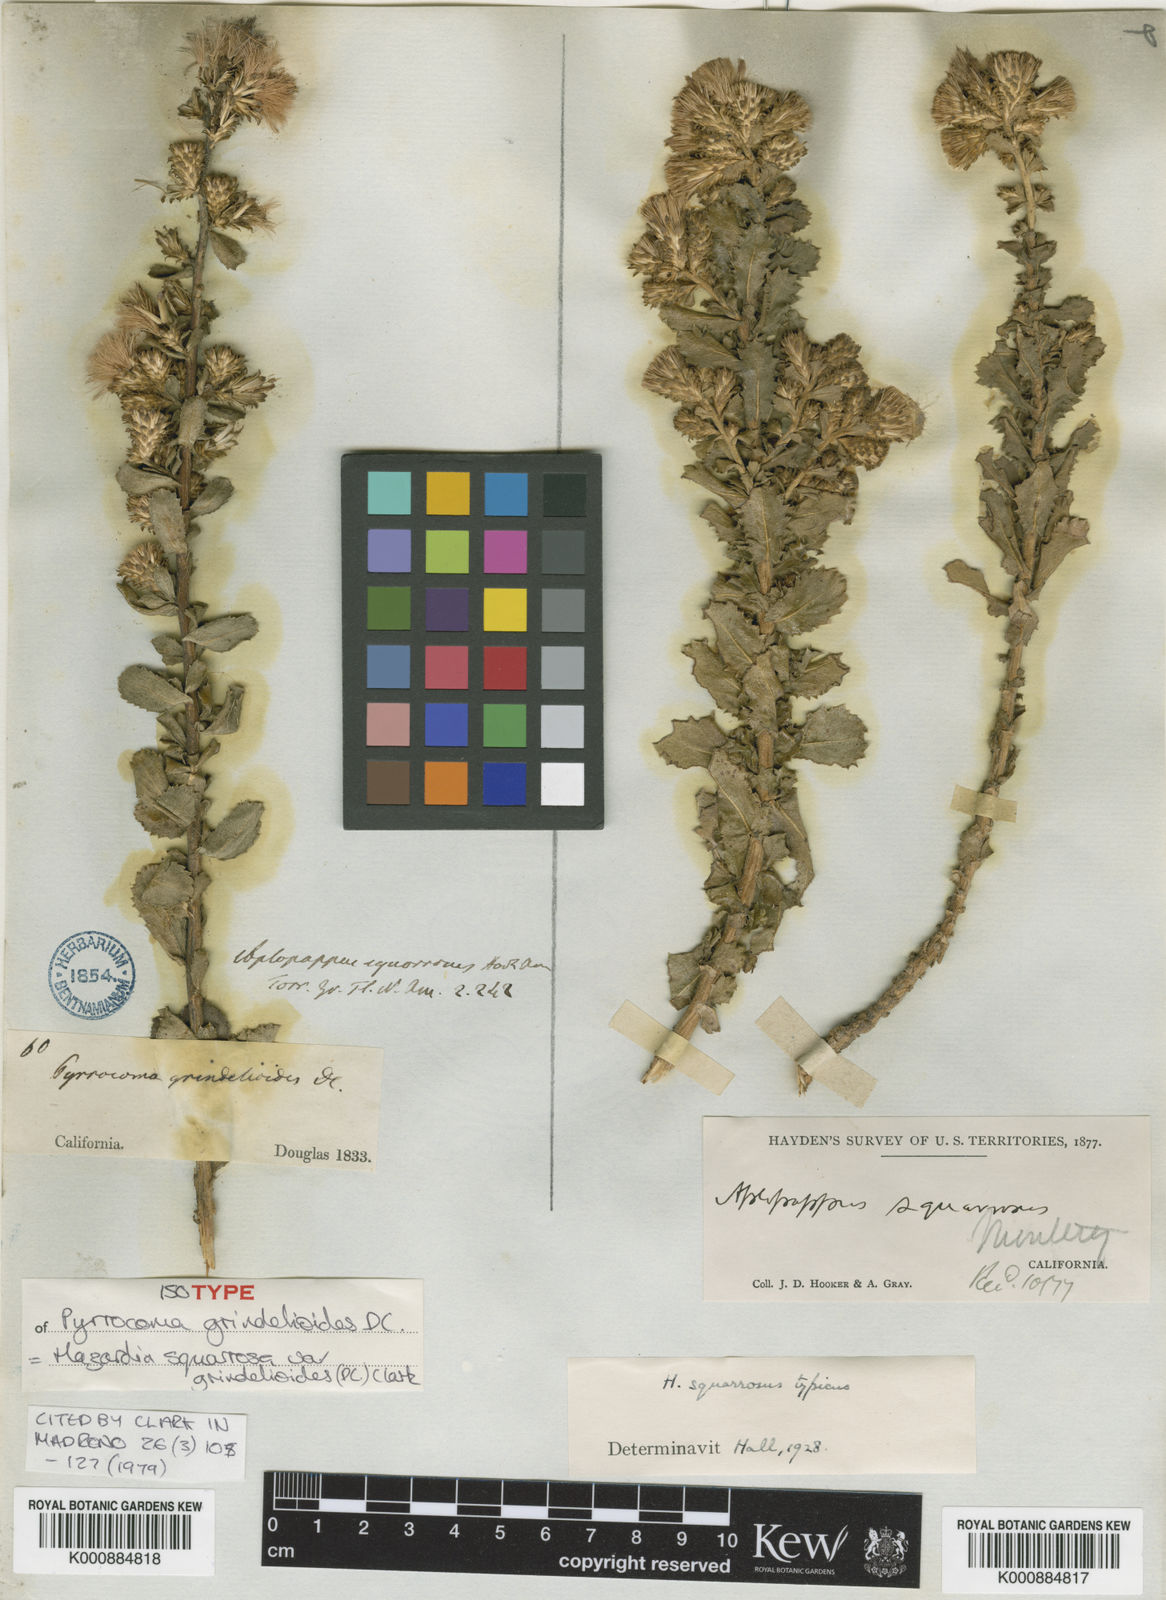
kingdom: Plantae
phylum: Tracheophyta
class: Magnoliopsida
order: Asterales
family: Asteraceae
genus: Hazardia
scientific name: Hazardia squarrosa
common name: Saw-tooth goldenbush
